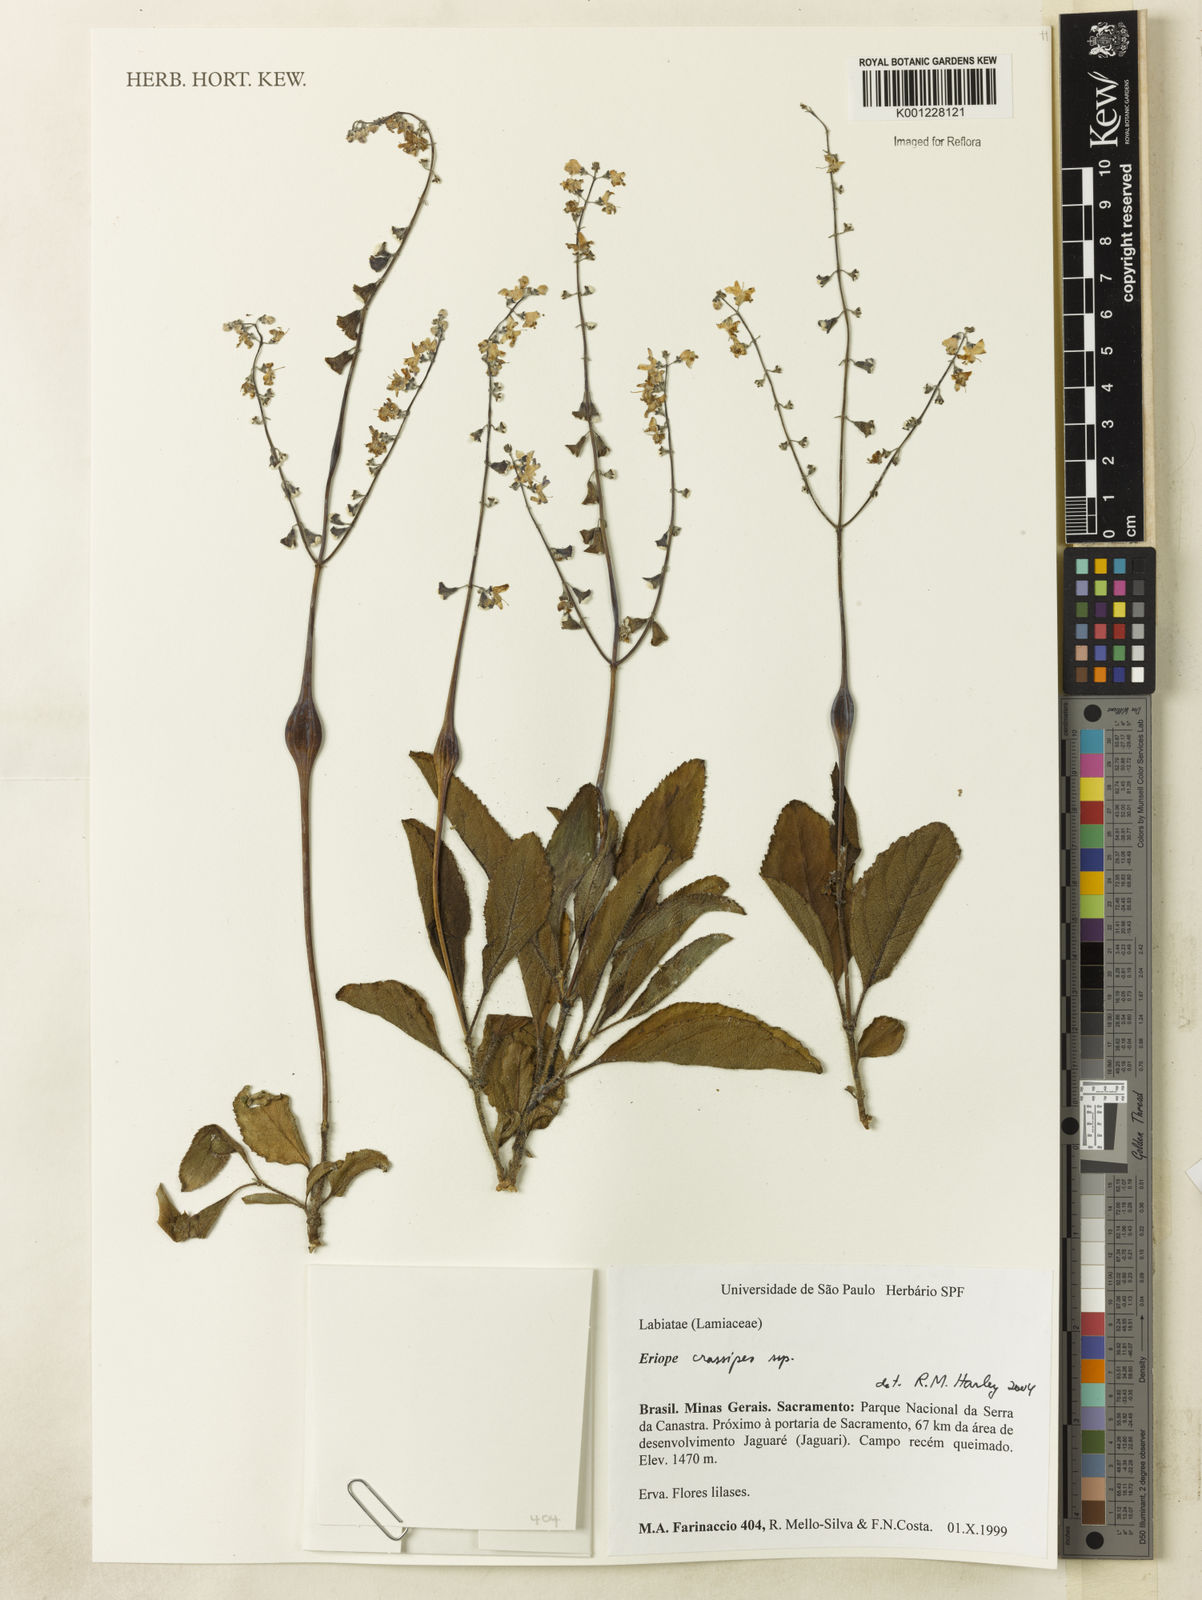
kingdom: Plantae
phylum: Tracheophyta
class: Magnoliopsida
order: Lamiales
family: Lamiaceae
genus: Eriope
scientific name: Eriope
